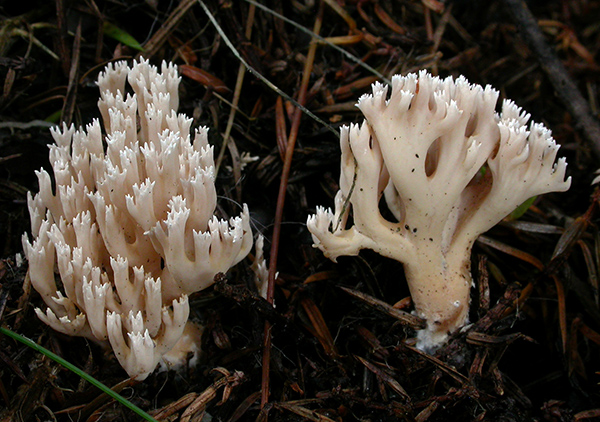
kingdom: Fungi
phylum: Basidiomycota
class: Agaricomycetes
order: Gomphales
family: Gomphaceae
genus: Phaeoclavulina
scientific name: Phaeoclavulina corrugata
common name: peber-koralsvamp
